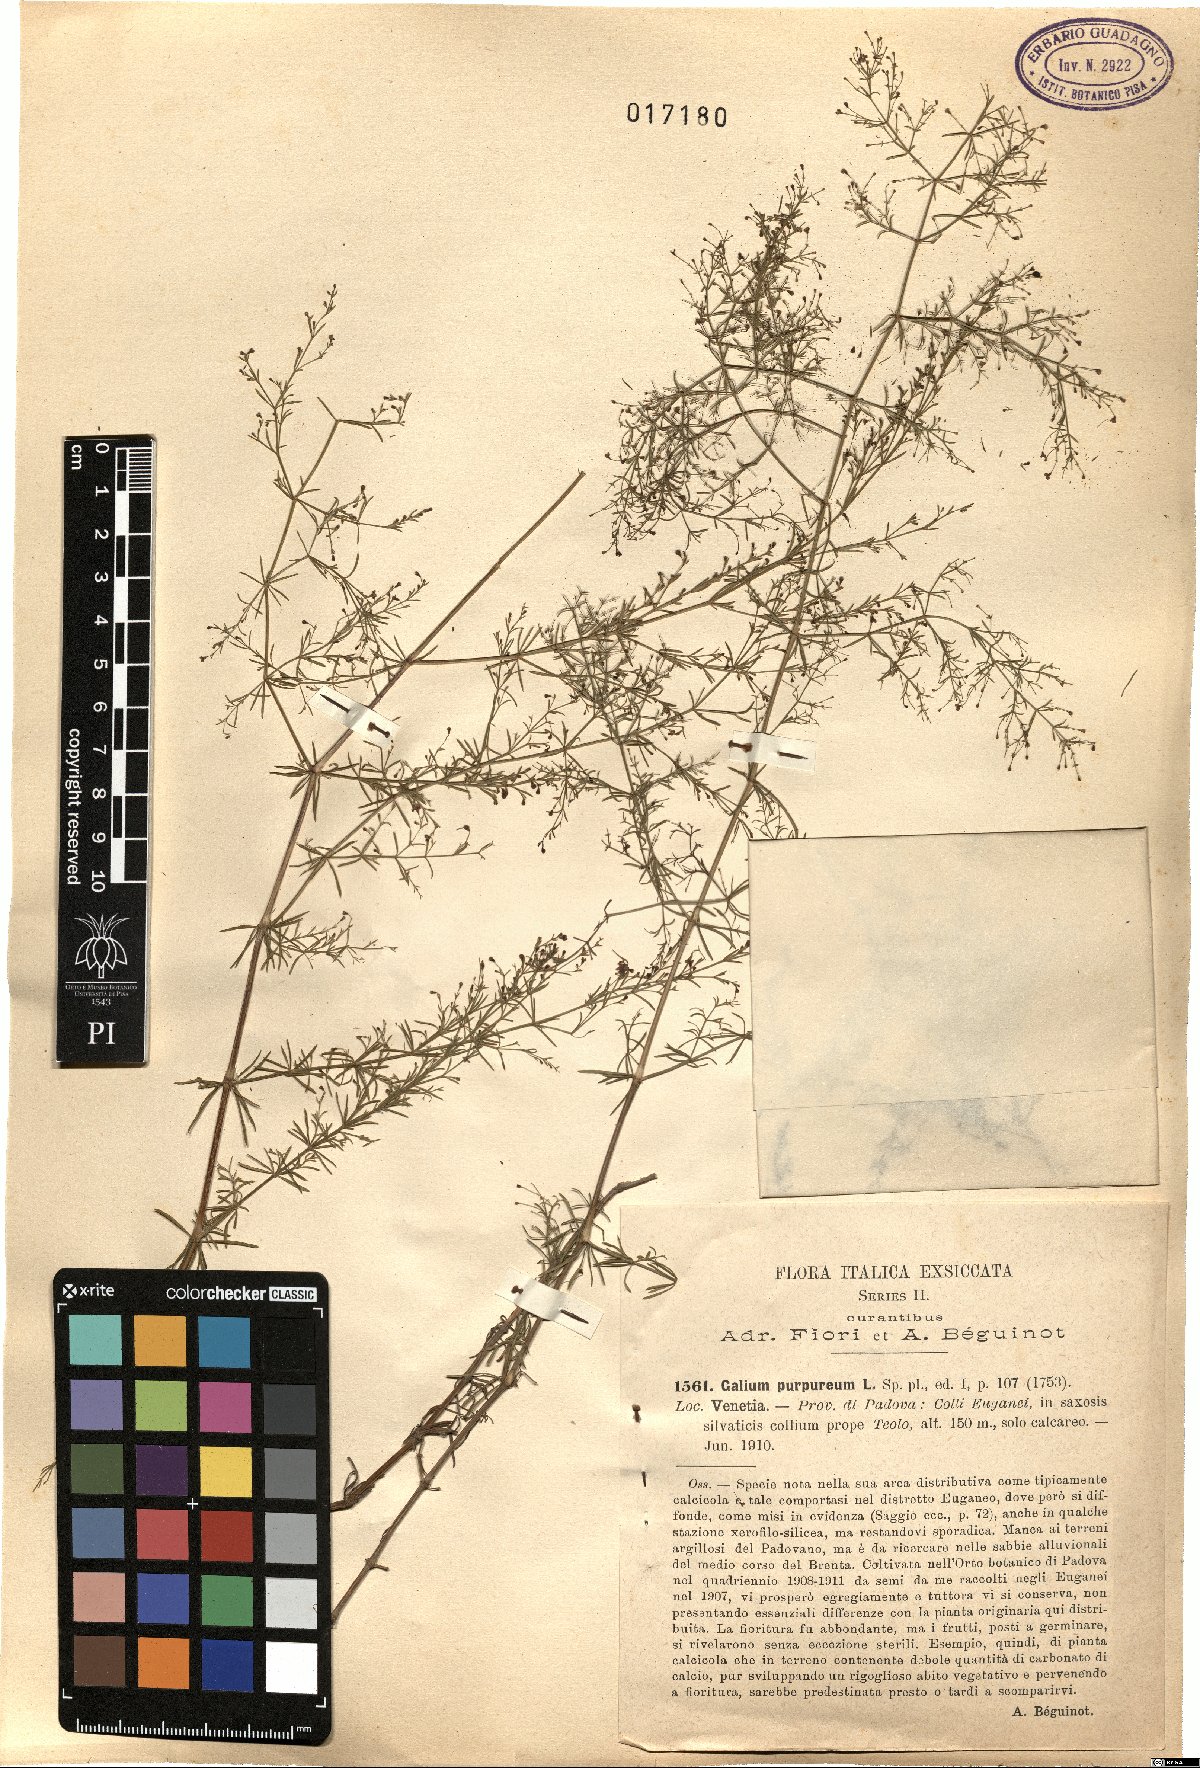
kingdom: Plantae
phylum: Tracheophyta
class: Magnoliopsida
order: Gentianales
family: Rubiaceae
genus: Thliphthisa
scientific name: Thliphthisa purpurea
